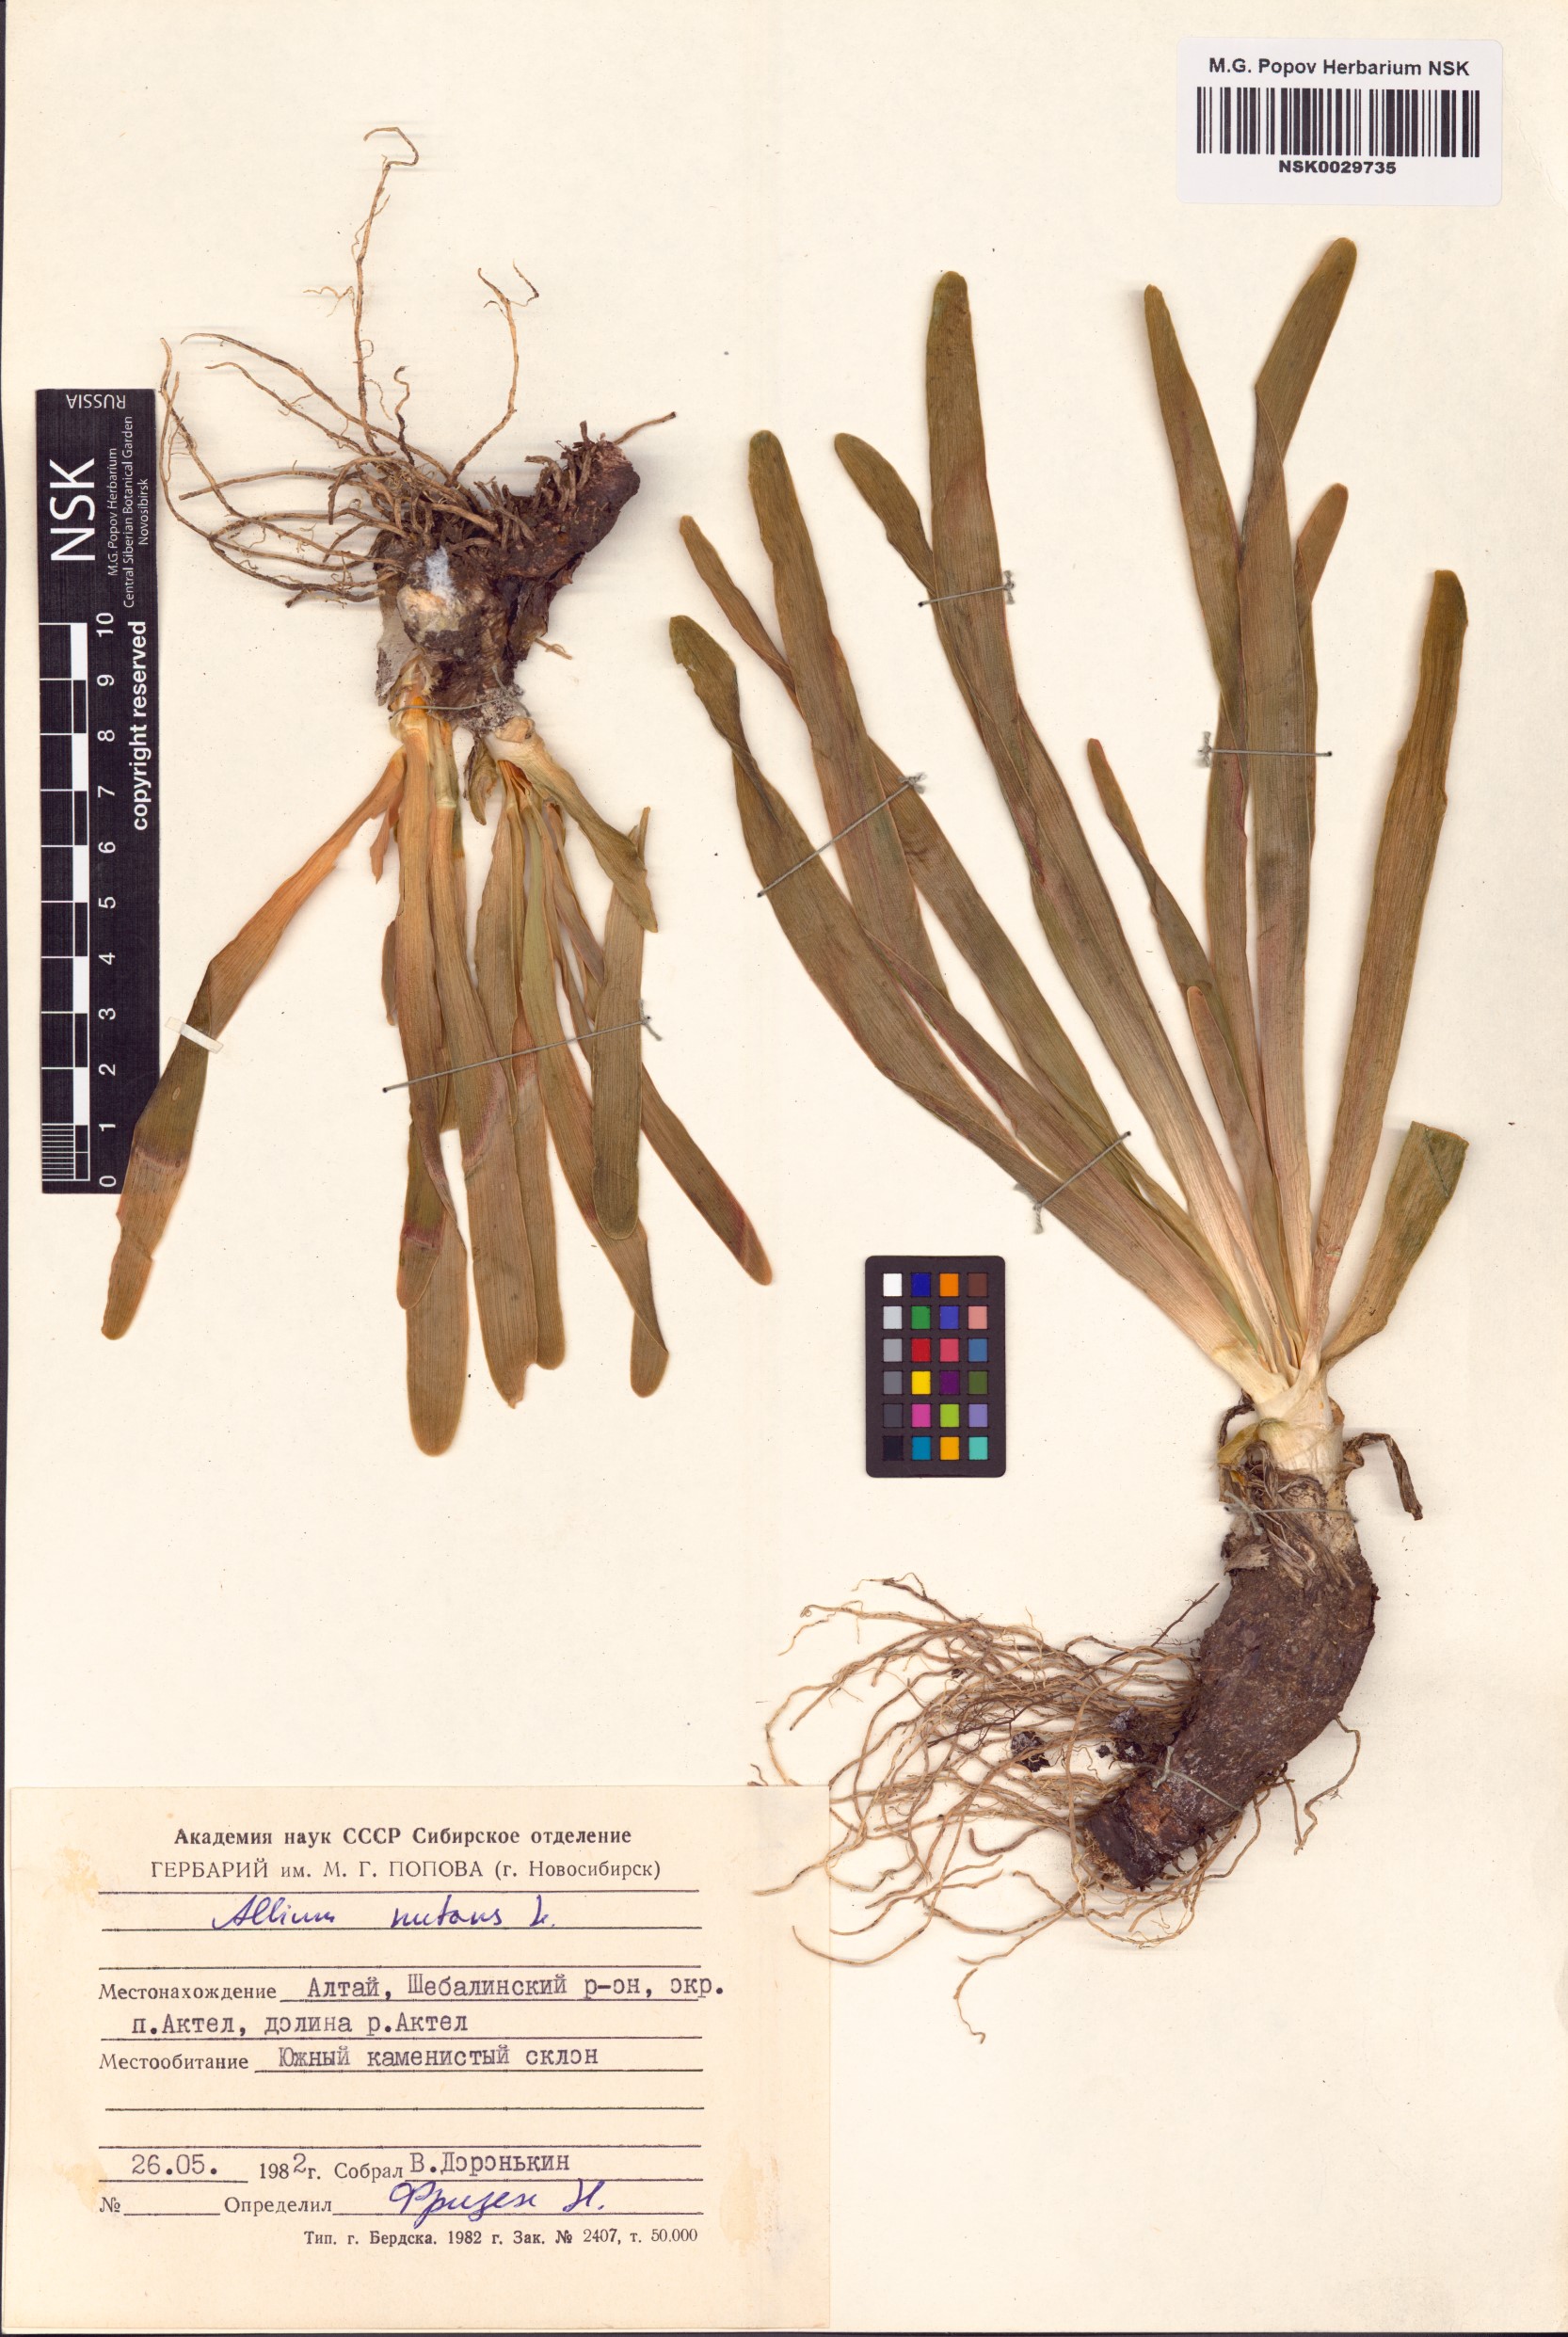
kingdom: Plantae
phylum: Tracheophyta
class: Liliopsida
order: Asparagales
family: Amaryllidaceae
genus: Allium
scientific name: Allium nutans
